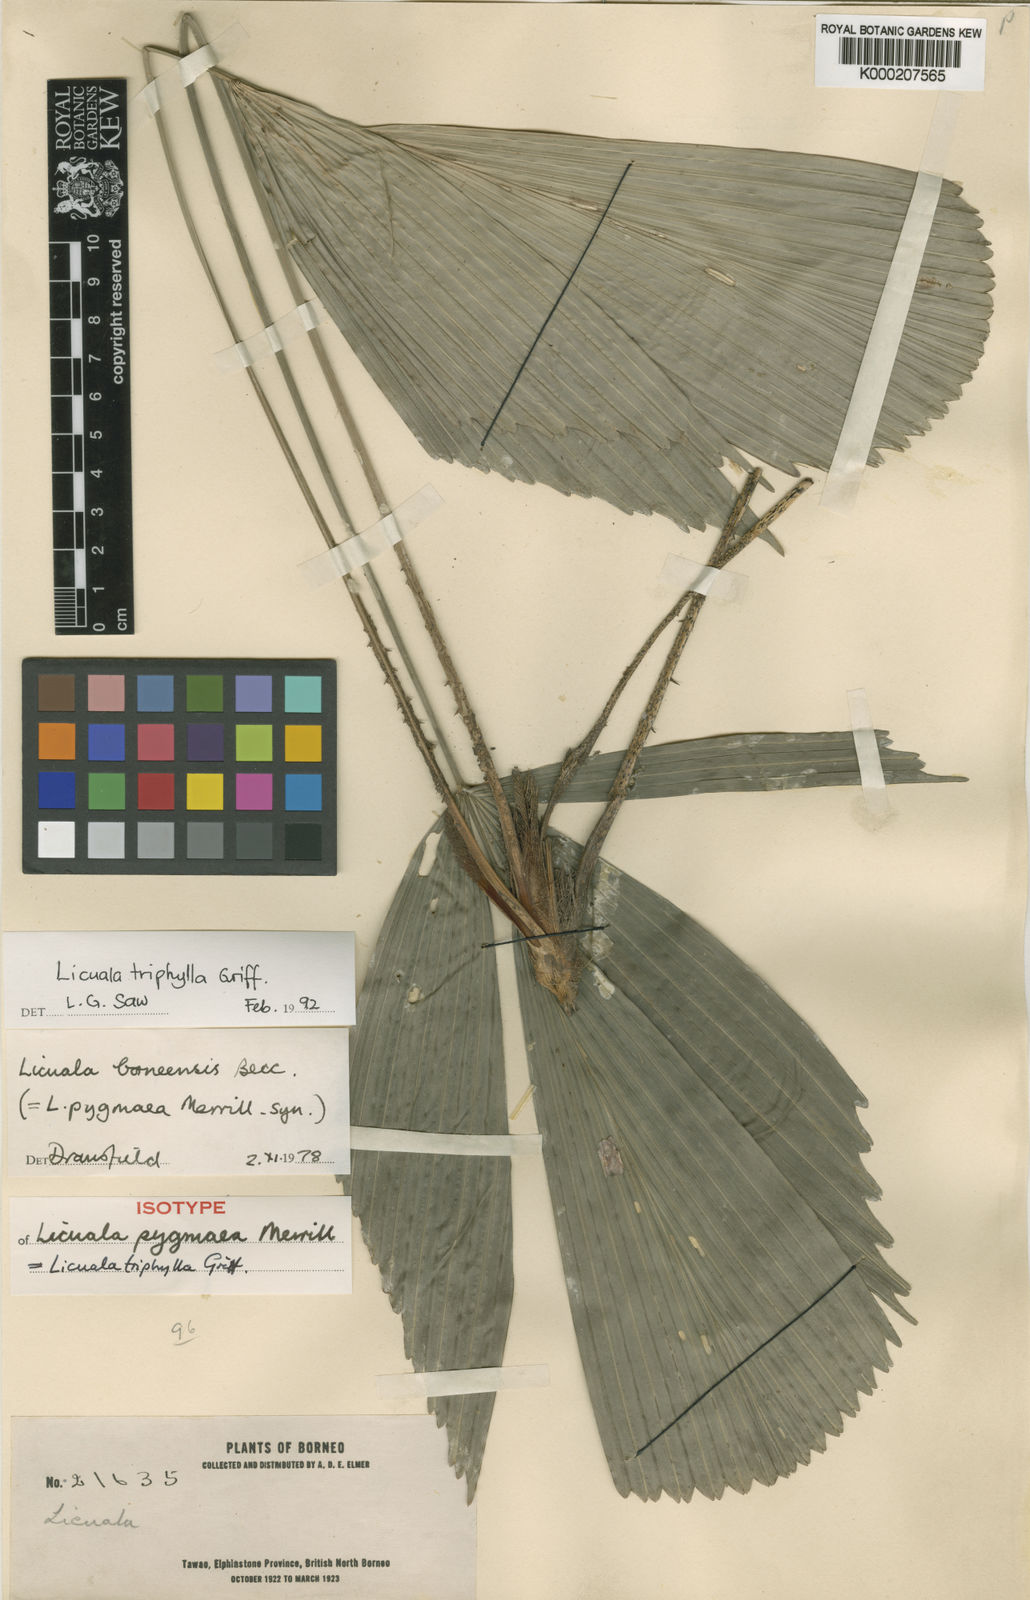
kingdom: Plantae
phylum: Tracheophyta
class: Liliopsida
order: Arecales
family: Arecaceae
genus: Licuala
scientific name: Licuala triphylla
